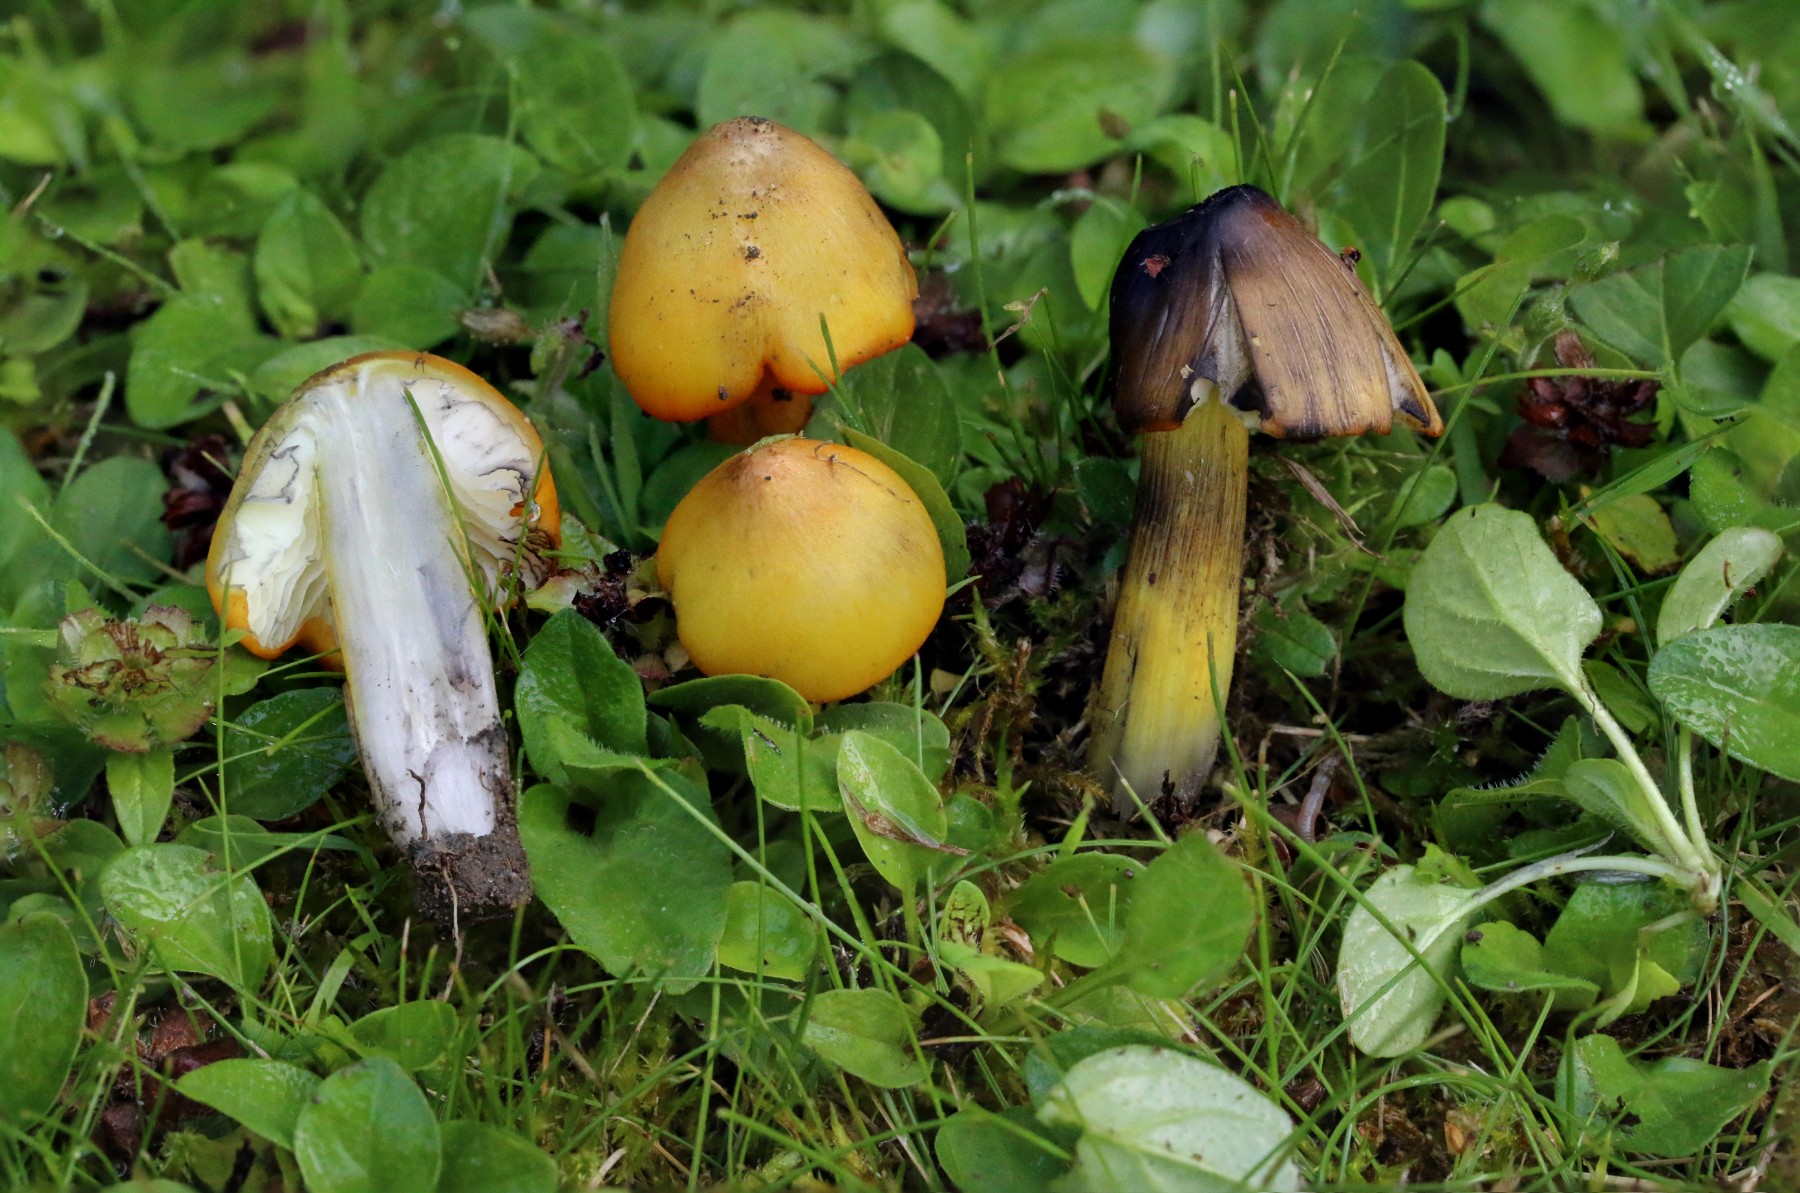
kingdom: Fungi
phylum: Basidiomycota
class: Agaricomycetes
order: Agaricales
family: Hygrophoraceae
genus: Hygrocybe
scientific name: Hygrocybe conica
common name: kegle-vokshat
